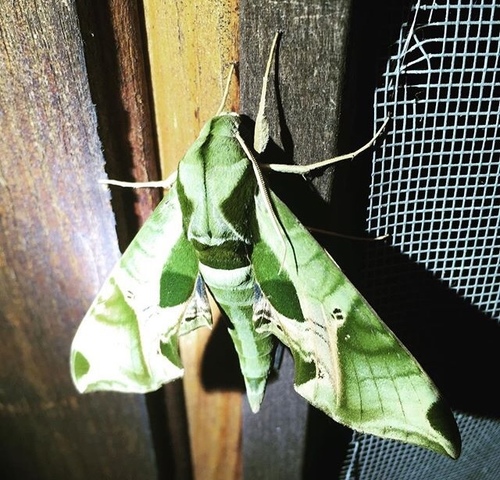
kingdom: Animalia
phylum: Arthropoda
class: Insecta
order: Lepidoptera
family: Sphingidae
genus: Eumorpha
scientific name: Eumorpha pandorus
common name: Pandora sphinx
